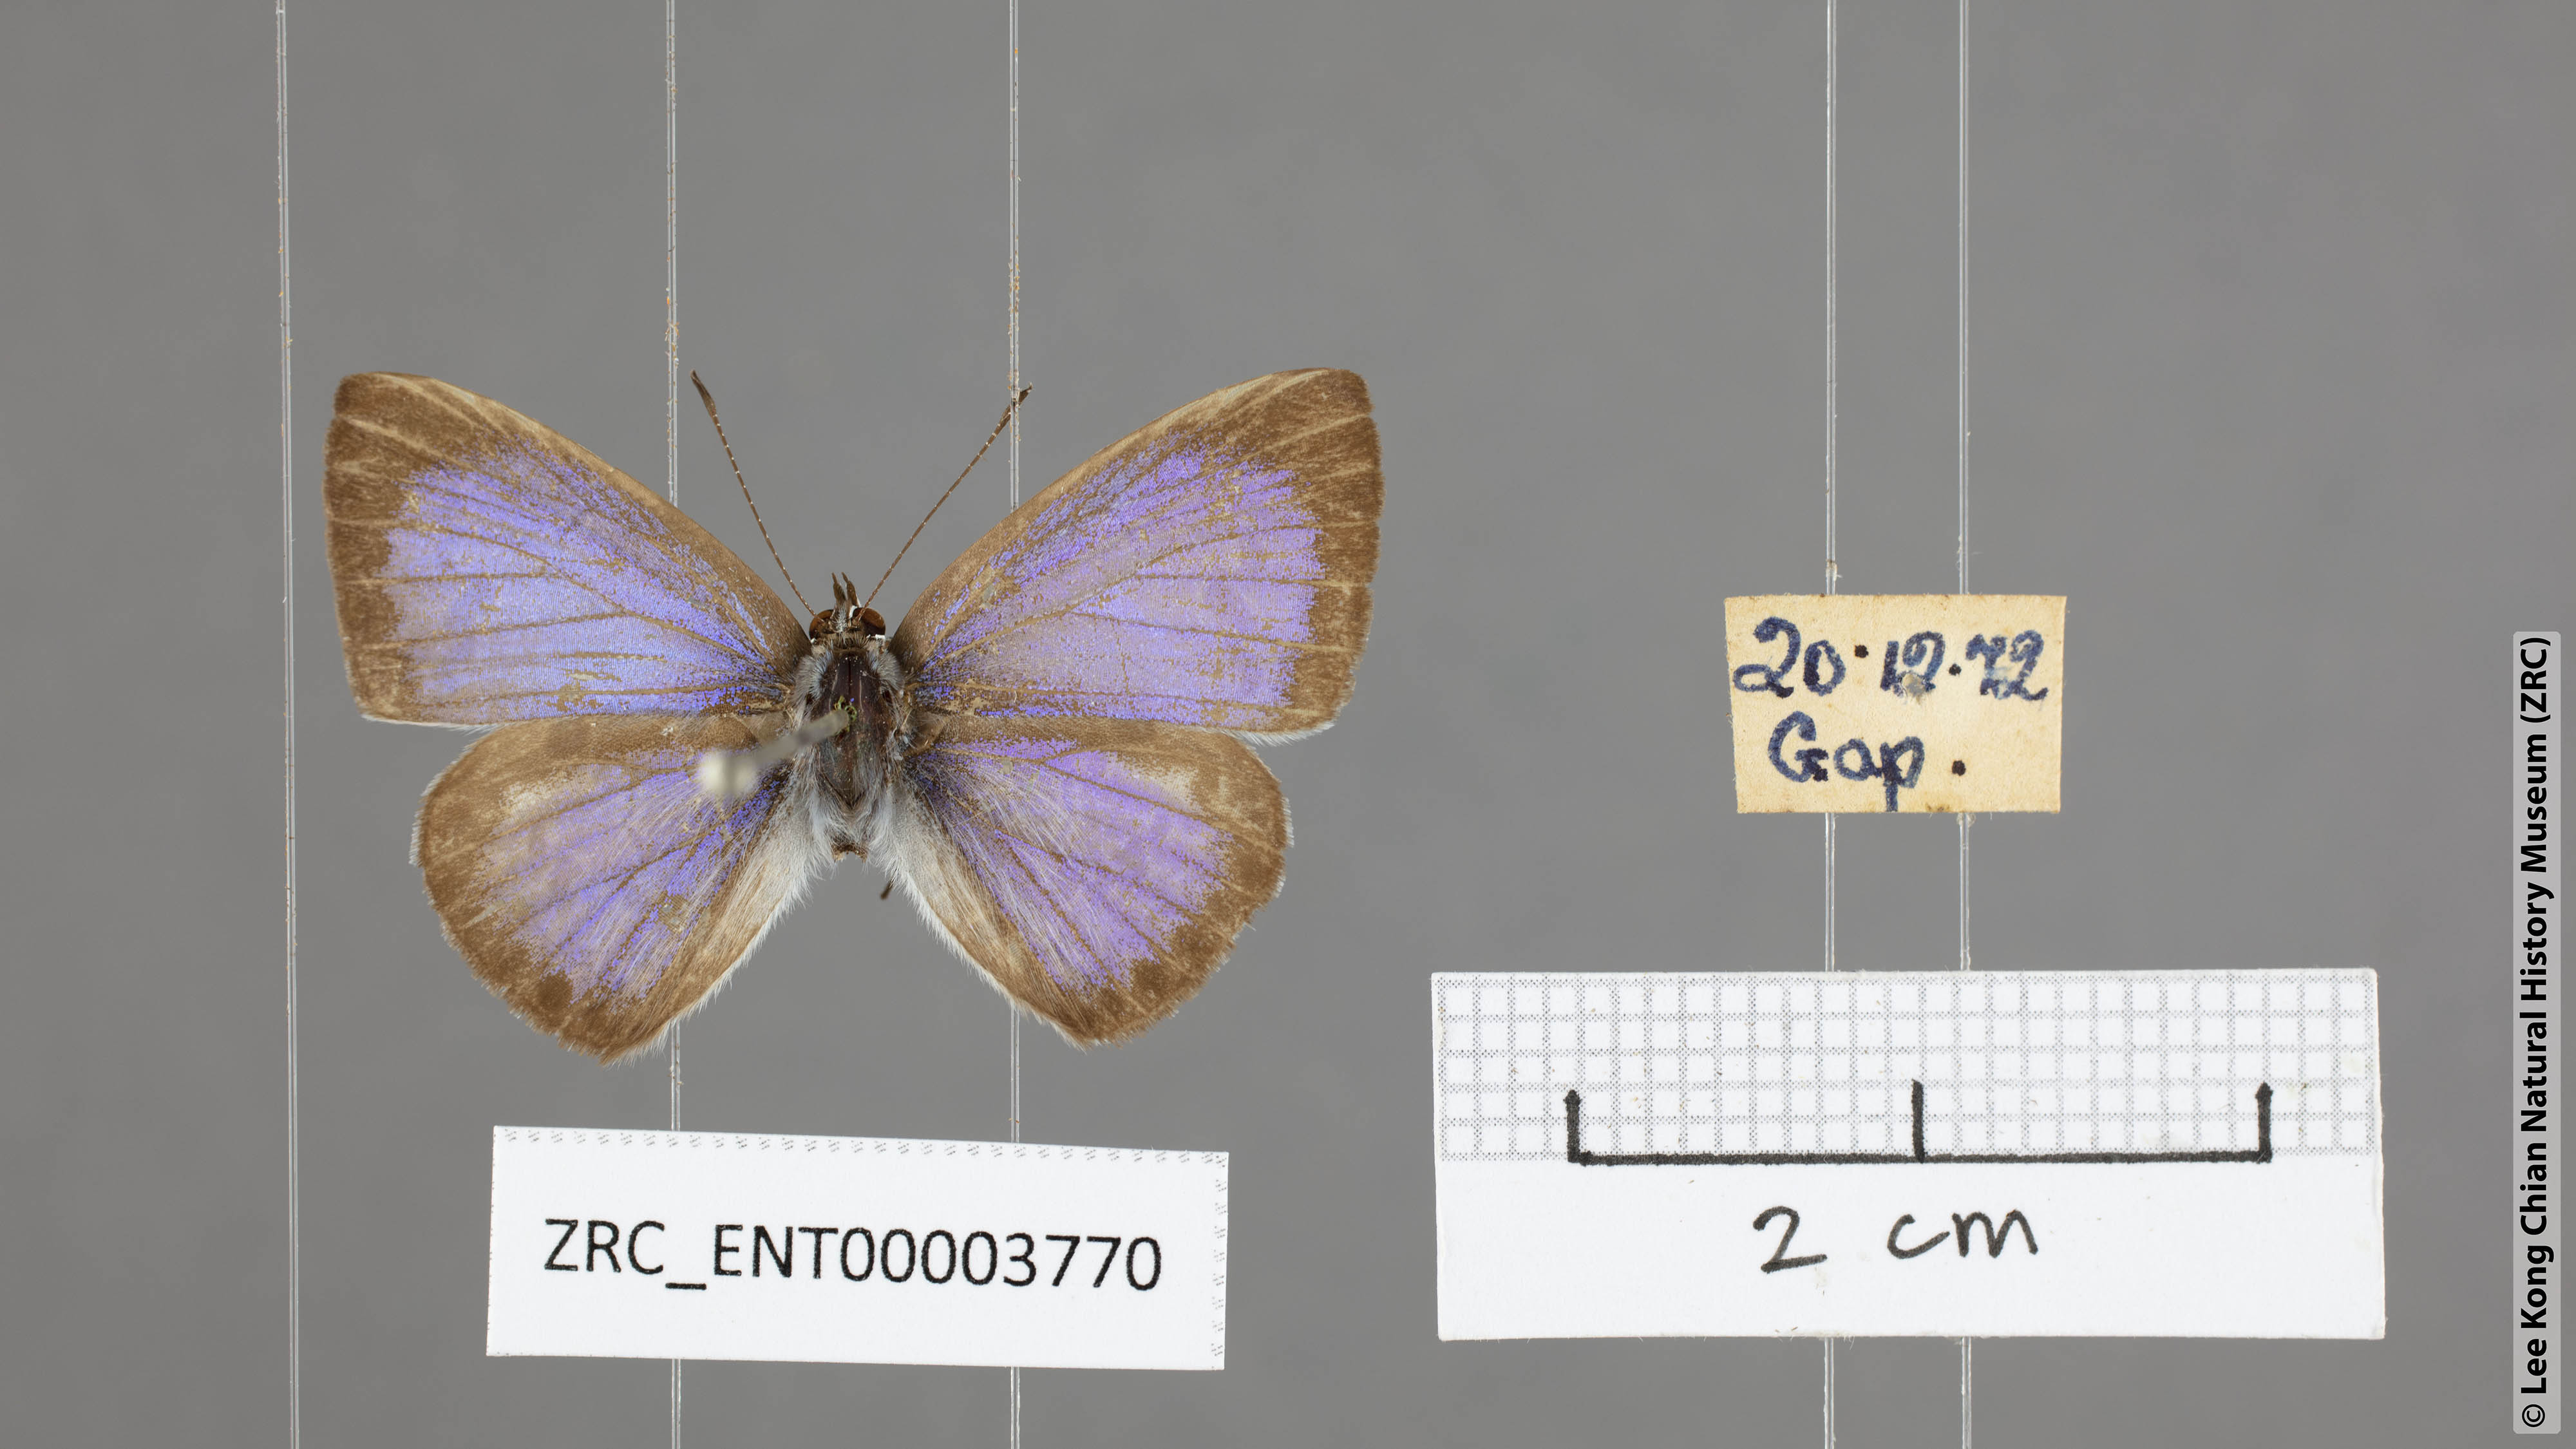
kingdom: Animalia
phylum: Arthropoda
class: Insecta
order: Lepidoptera
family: Lycaenidae
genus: Acytolepis
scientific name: Acytolepis puspa
